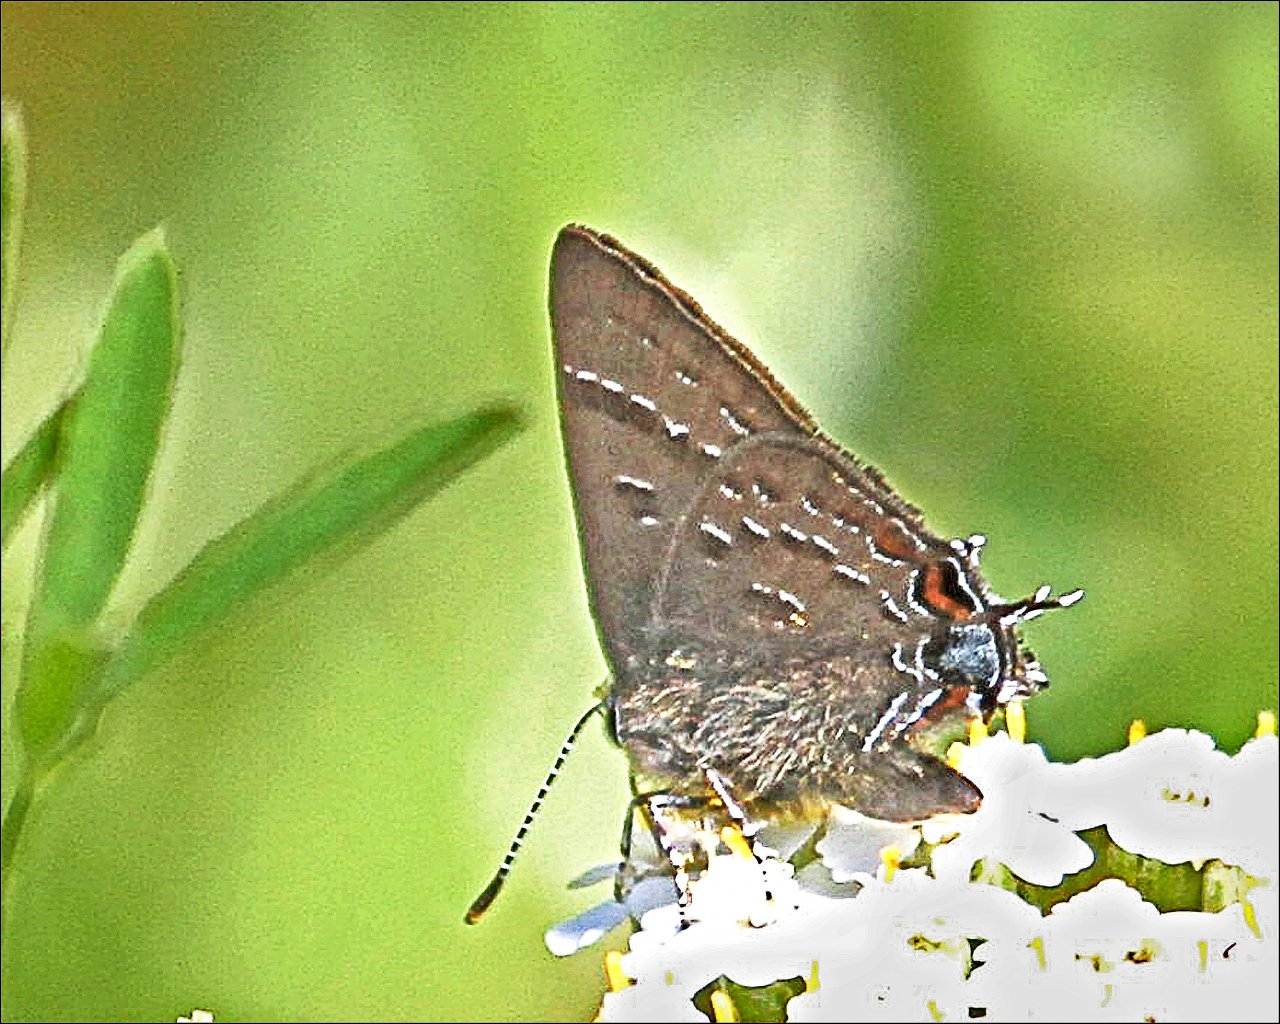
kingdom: Animalia
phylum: Arthropoda
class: Insecta
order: Lepidoptera
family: Lycaenidae
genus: Satyrium
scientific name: Satyrium calanus
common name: Banded Hairstreak
